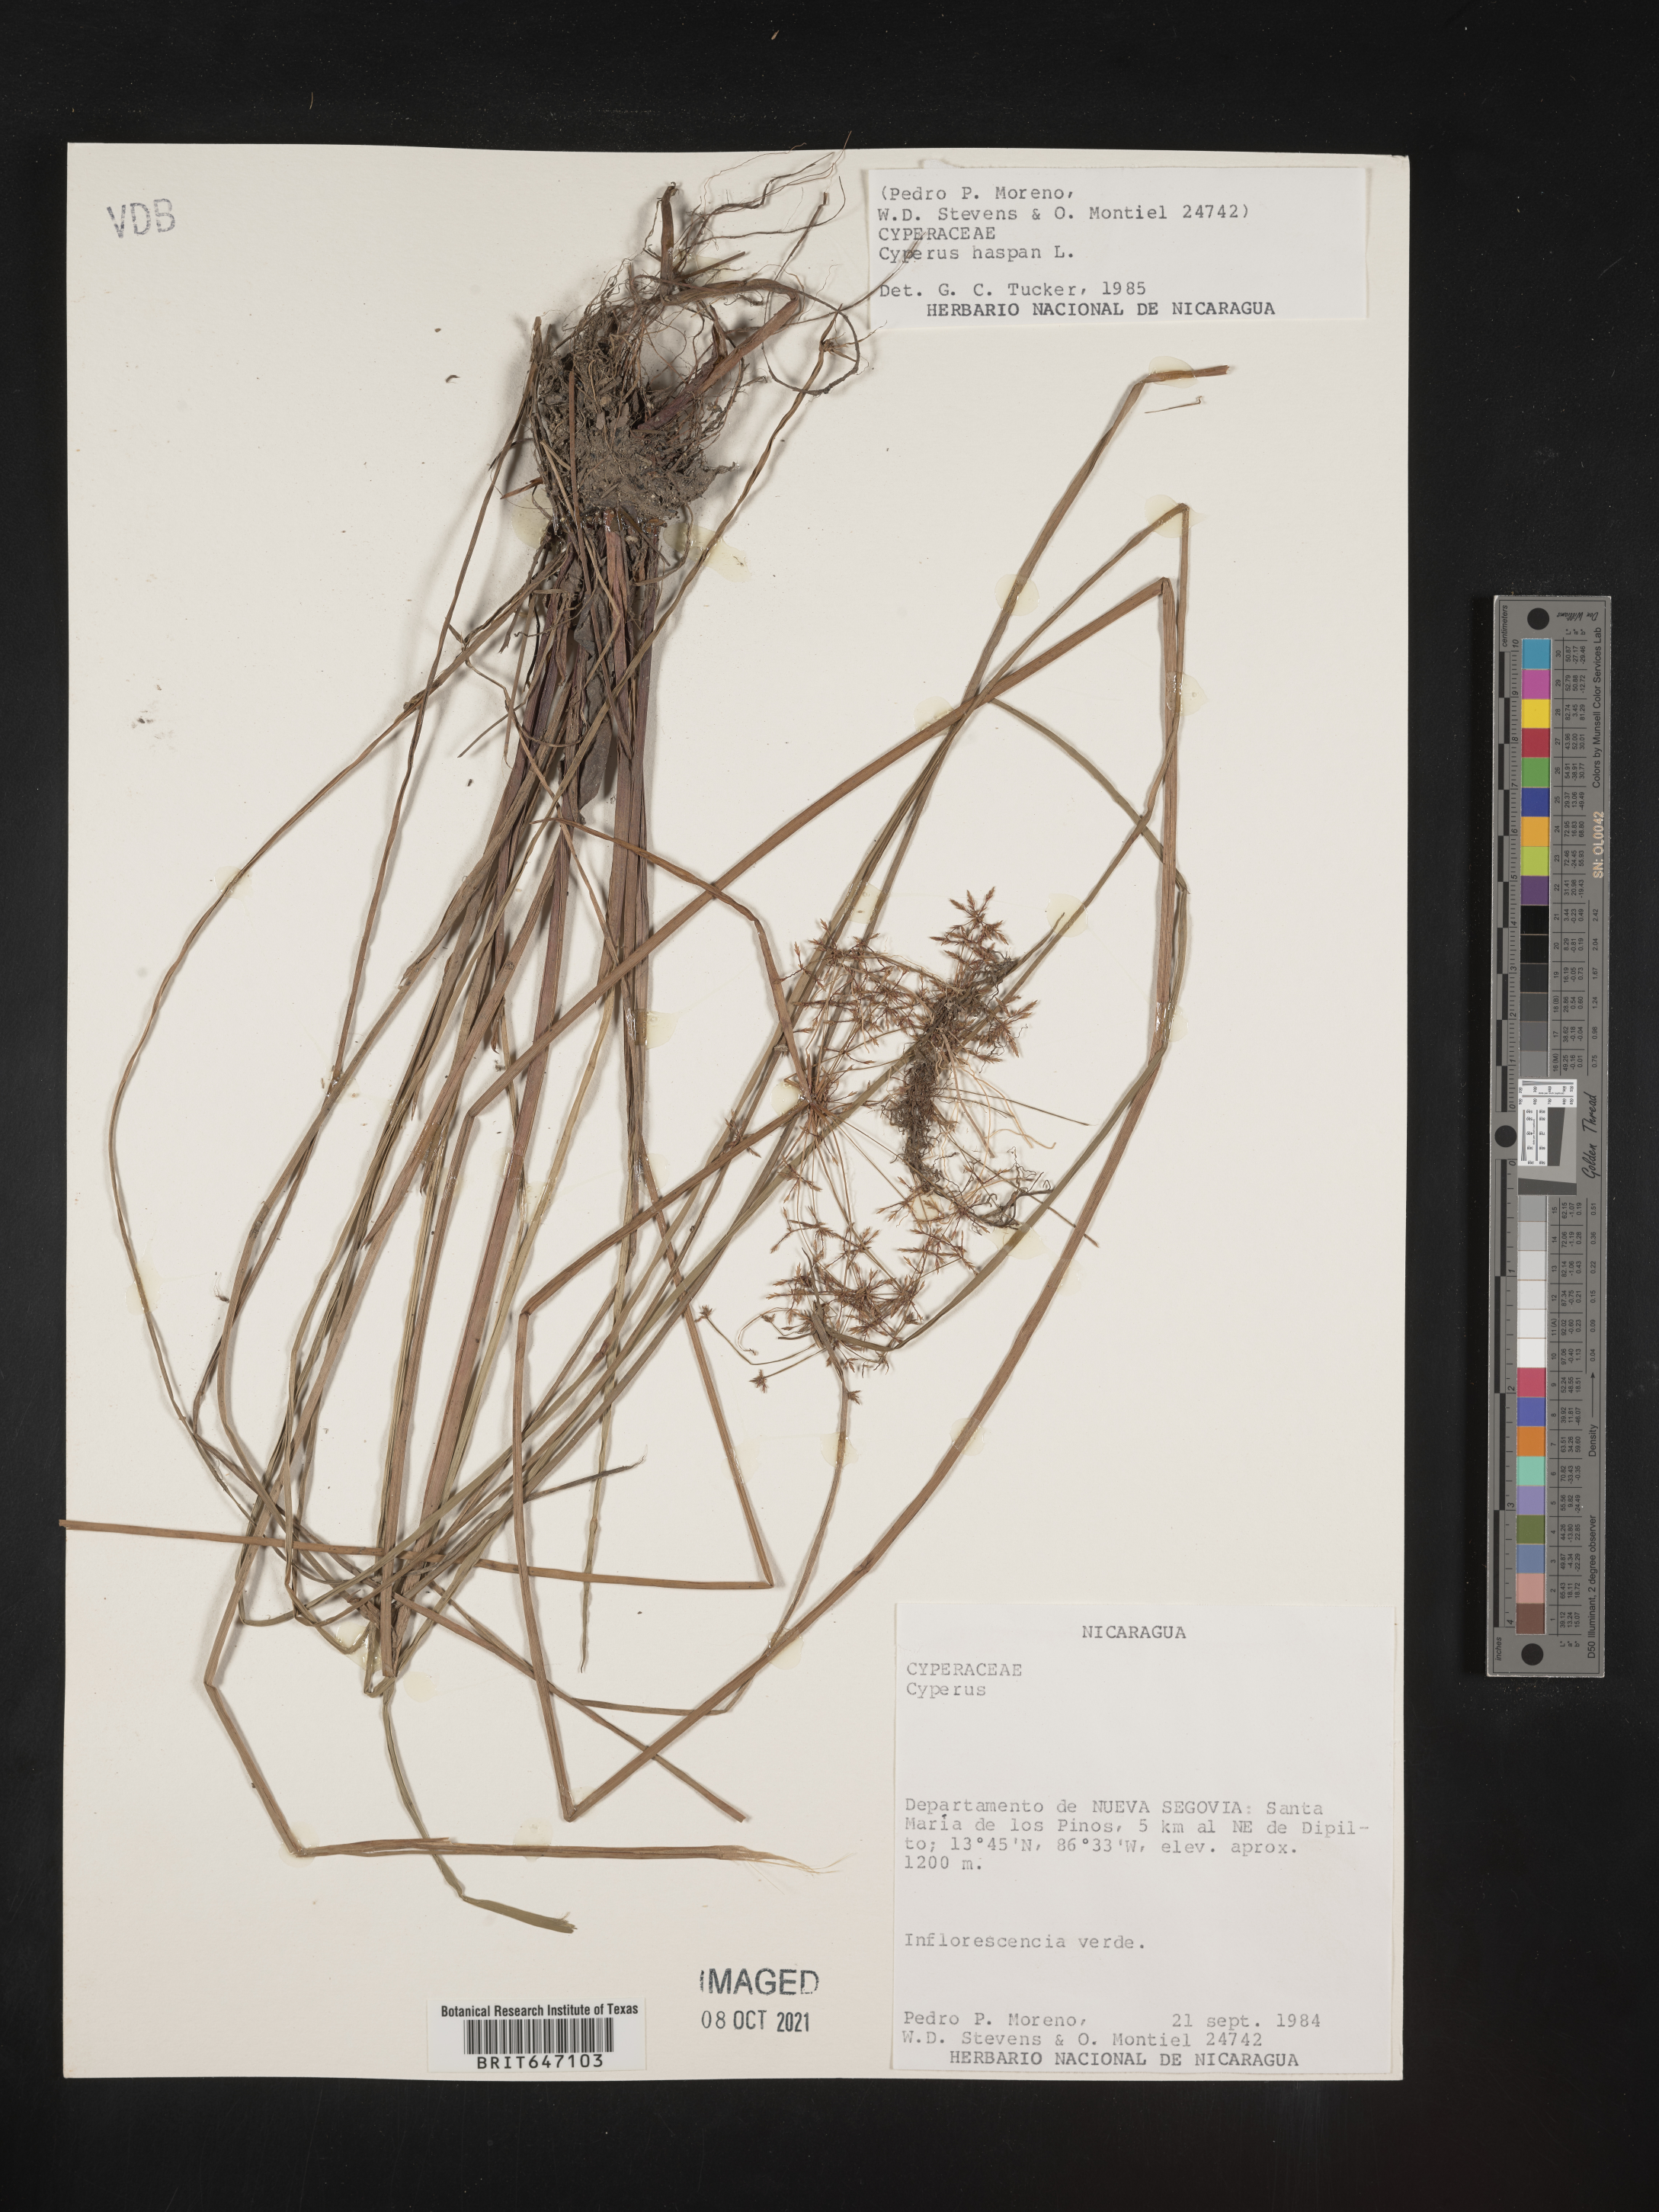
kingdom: Plantae
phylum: Tracheophyta
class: Liliopsida
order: Poales
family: Cyperaceae
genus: Cyperus
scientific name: Cyperus haspan
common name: Haspan flatsedge
